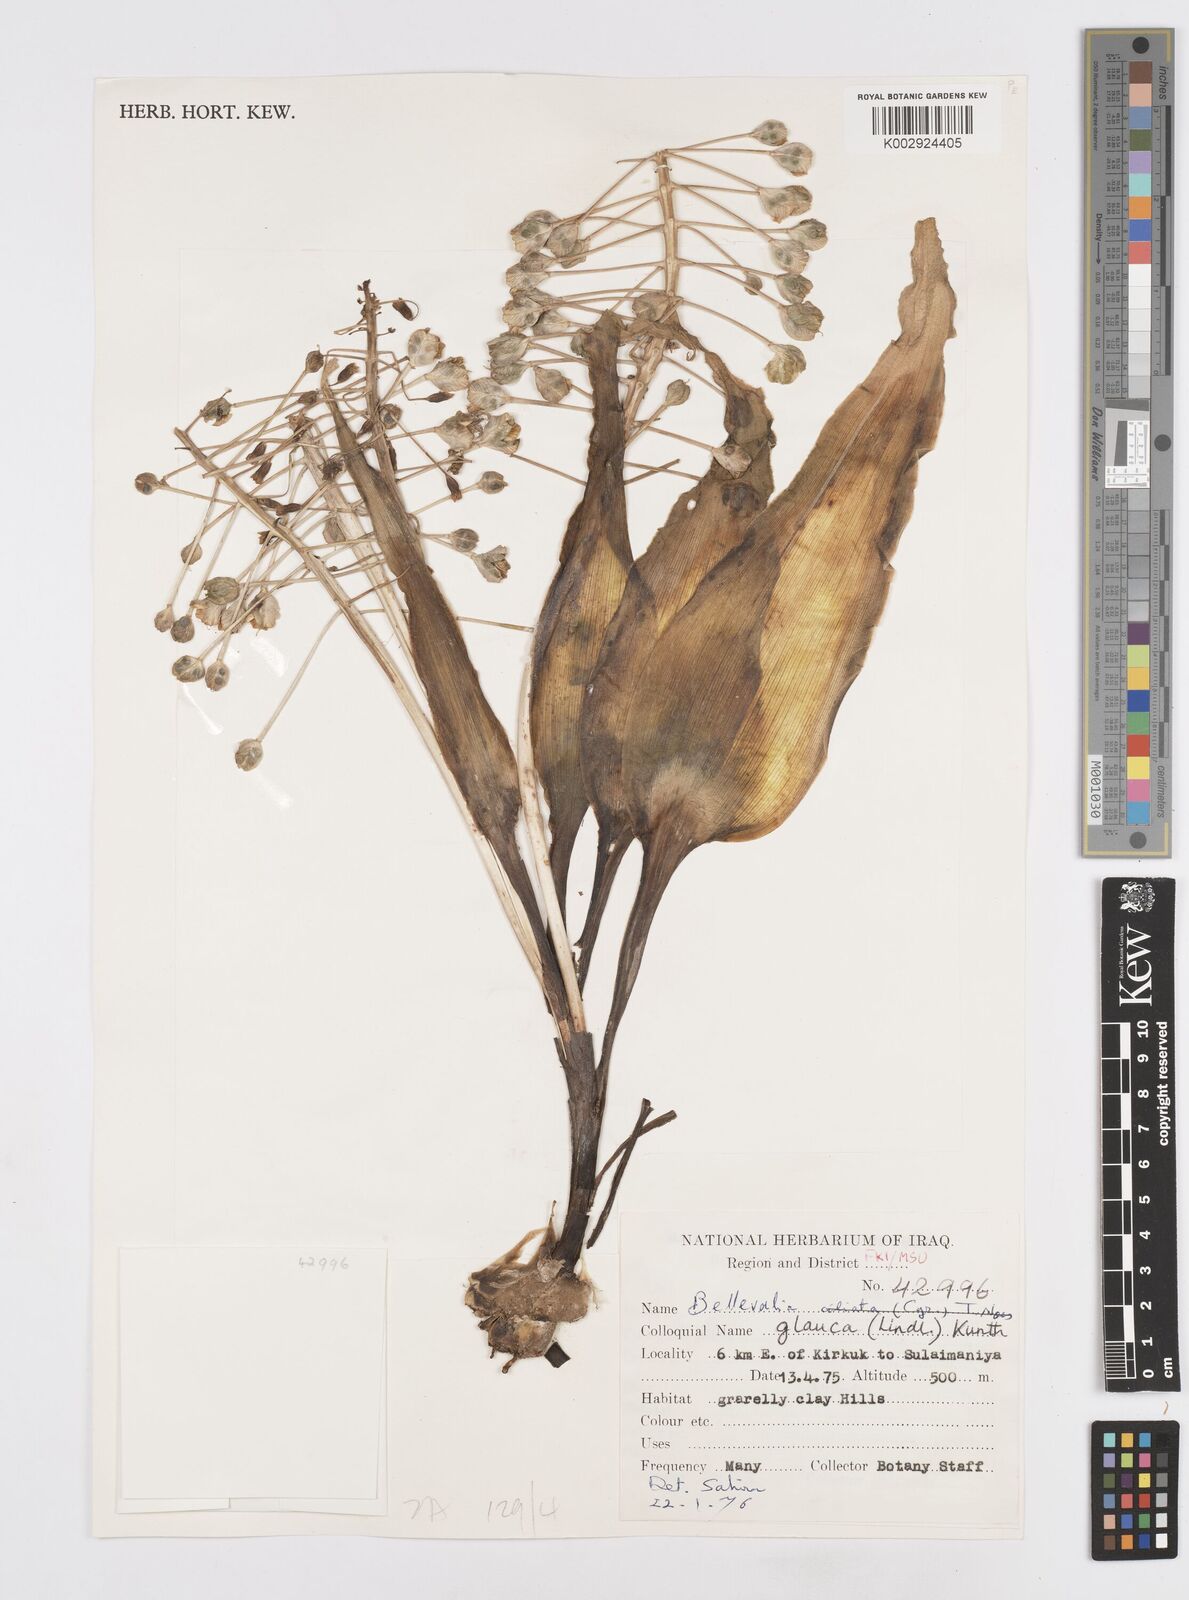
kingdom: Plantae
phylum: Tracheophyta
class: Liliopsida
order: Asparagales
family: Asparagaceae
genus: Bellevalia
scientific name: Bellevalia glauca
